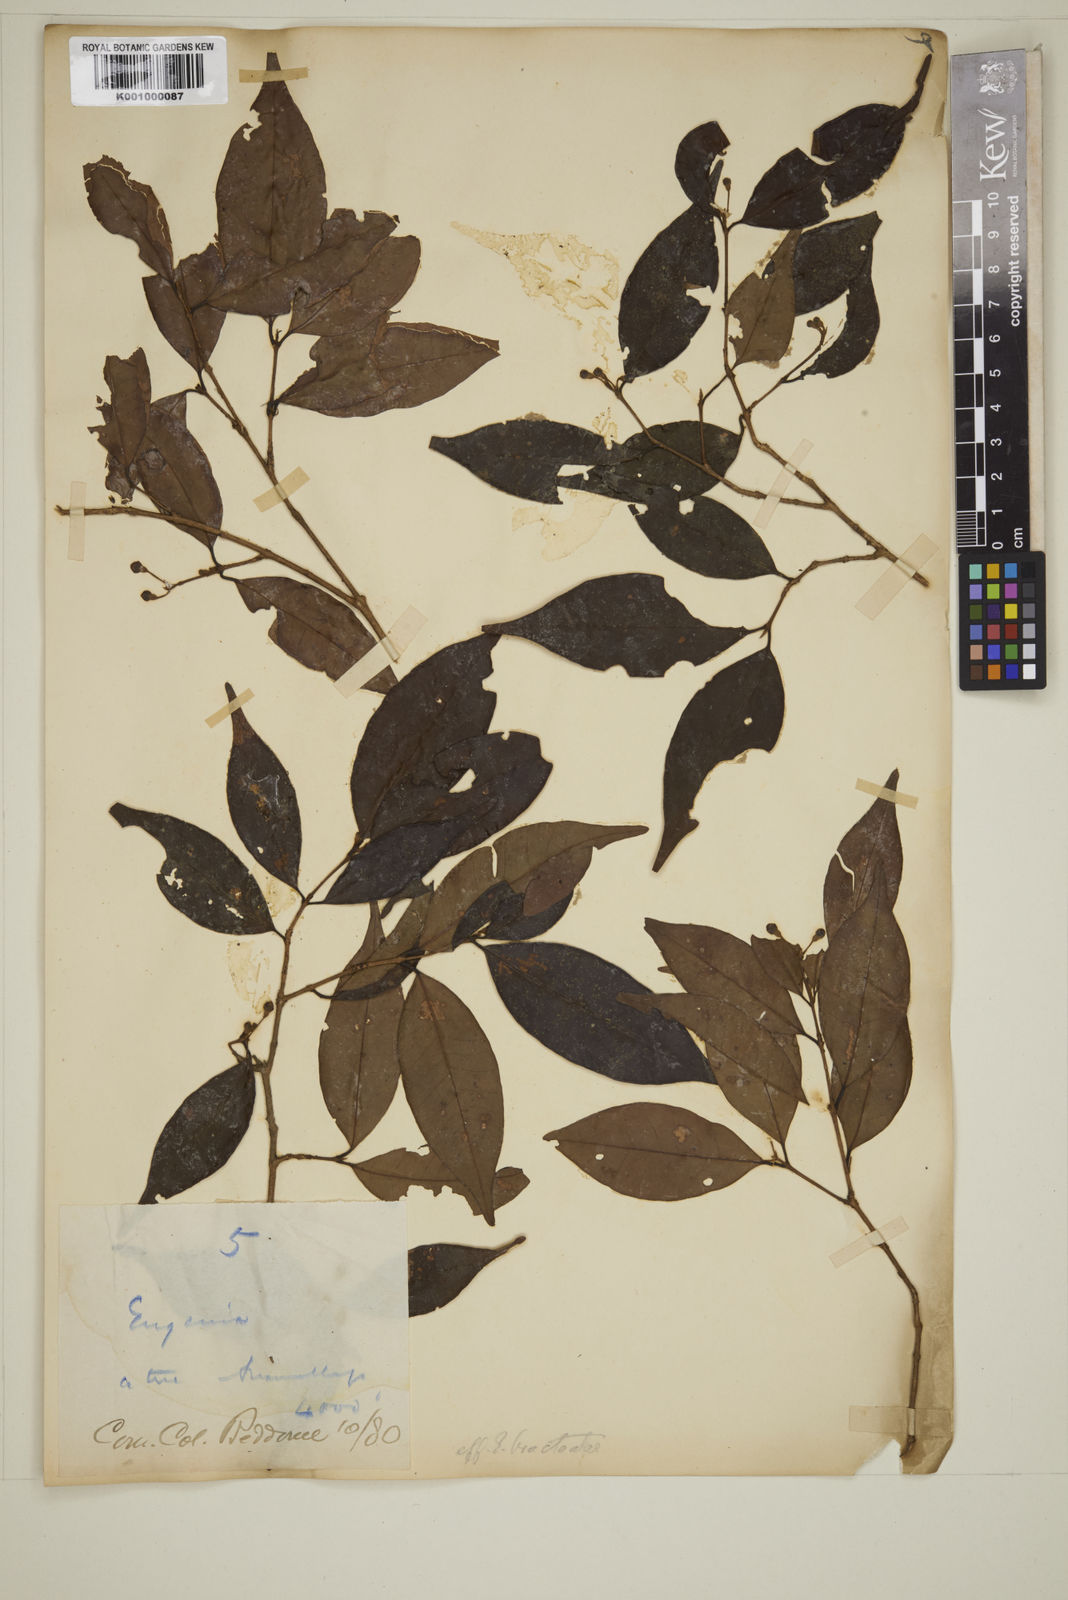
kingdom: Plantae
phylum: Tracheophyta
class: Magnoliopsida
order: Myrtales
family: Myrtaceae
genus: Eugenia
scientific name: Eugenia thwaitesii
